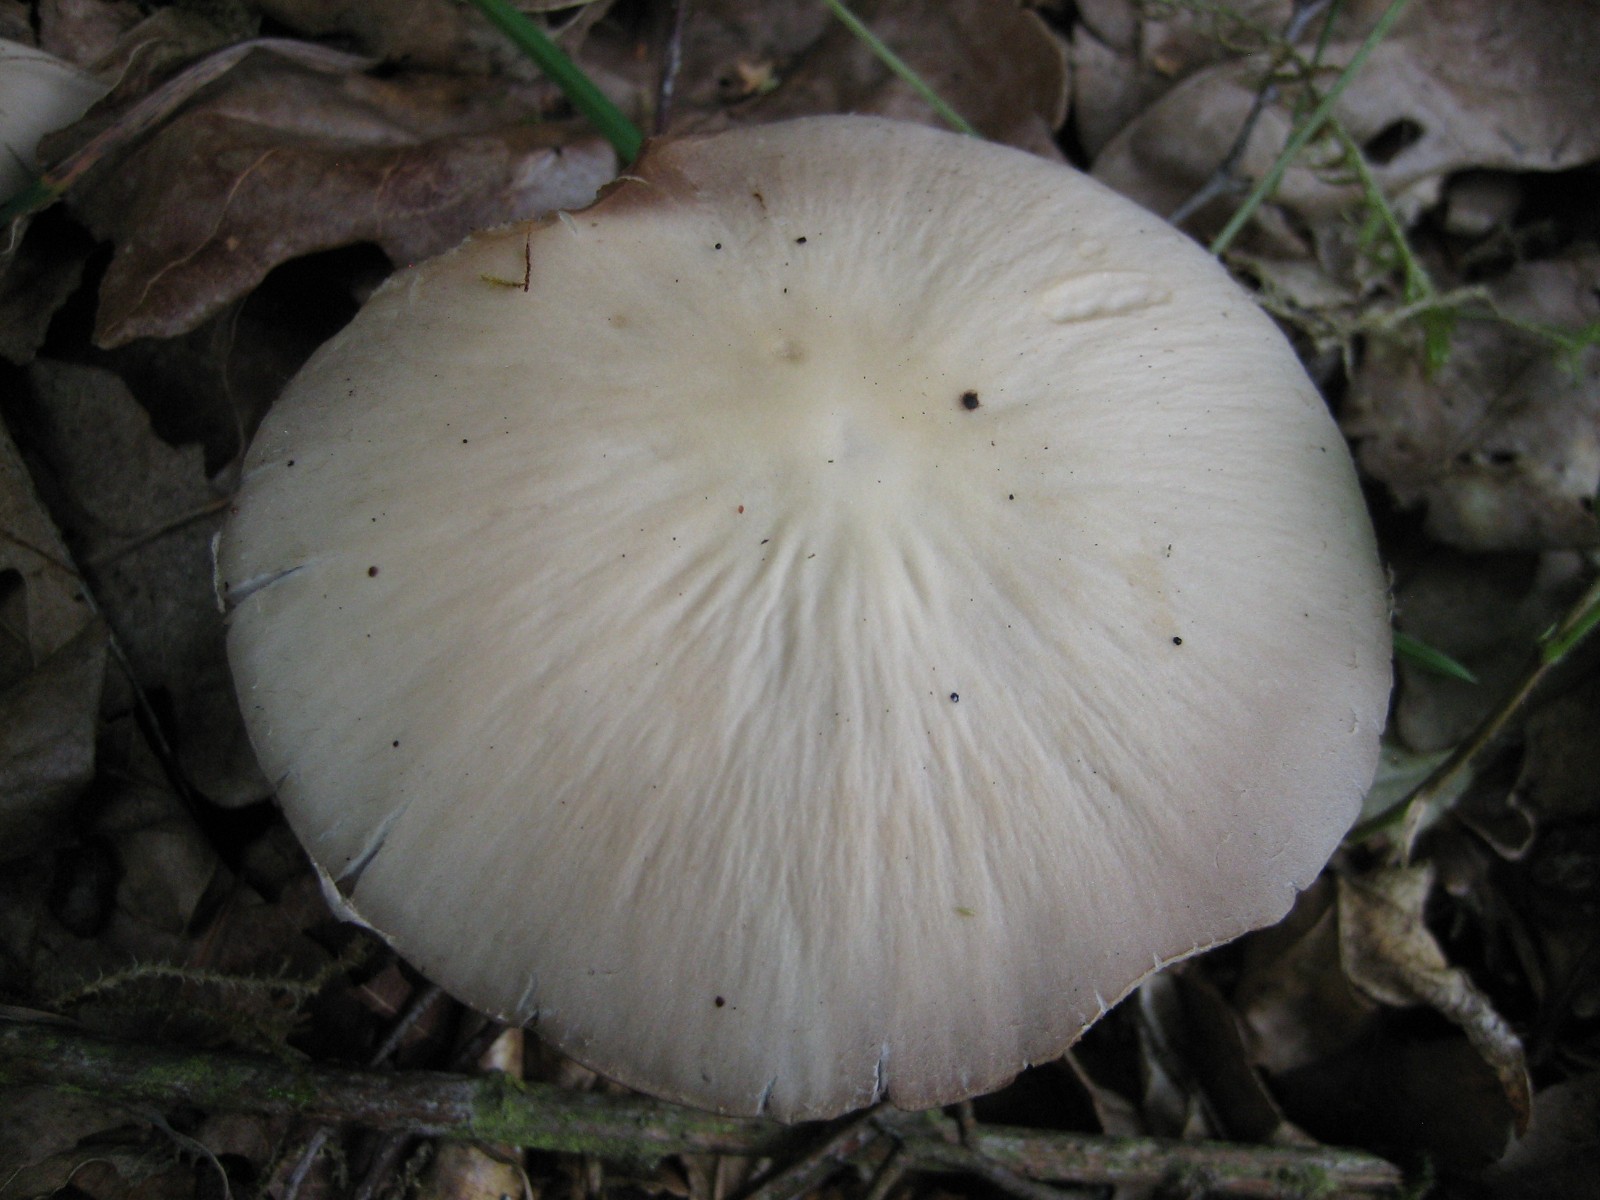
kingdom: Fungi
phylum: Basidiomycota
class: Agaricomycetes
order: Agaricales
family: Psathyrellaceae
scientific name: Psathyrellaceae
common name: mørkhatfamilien
